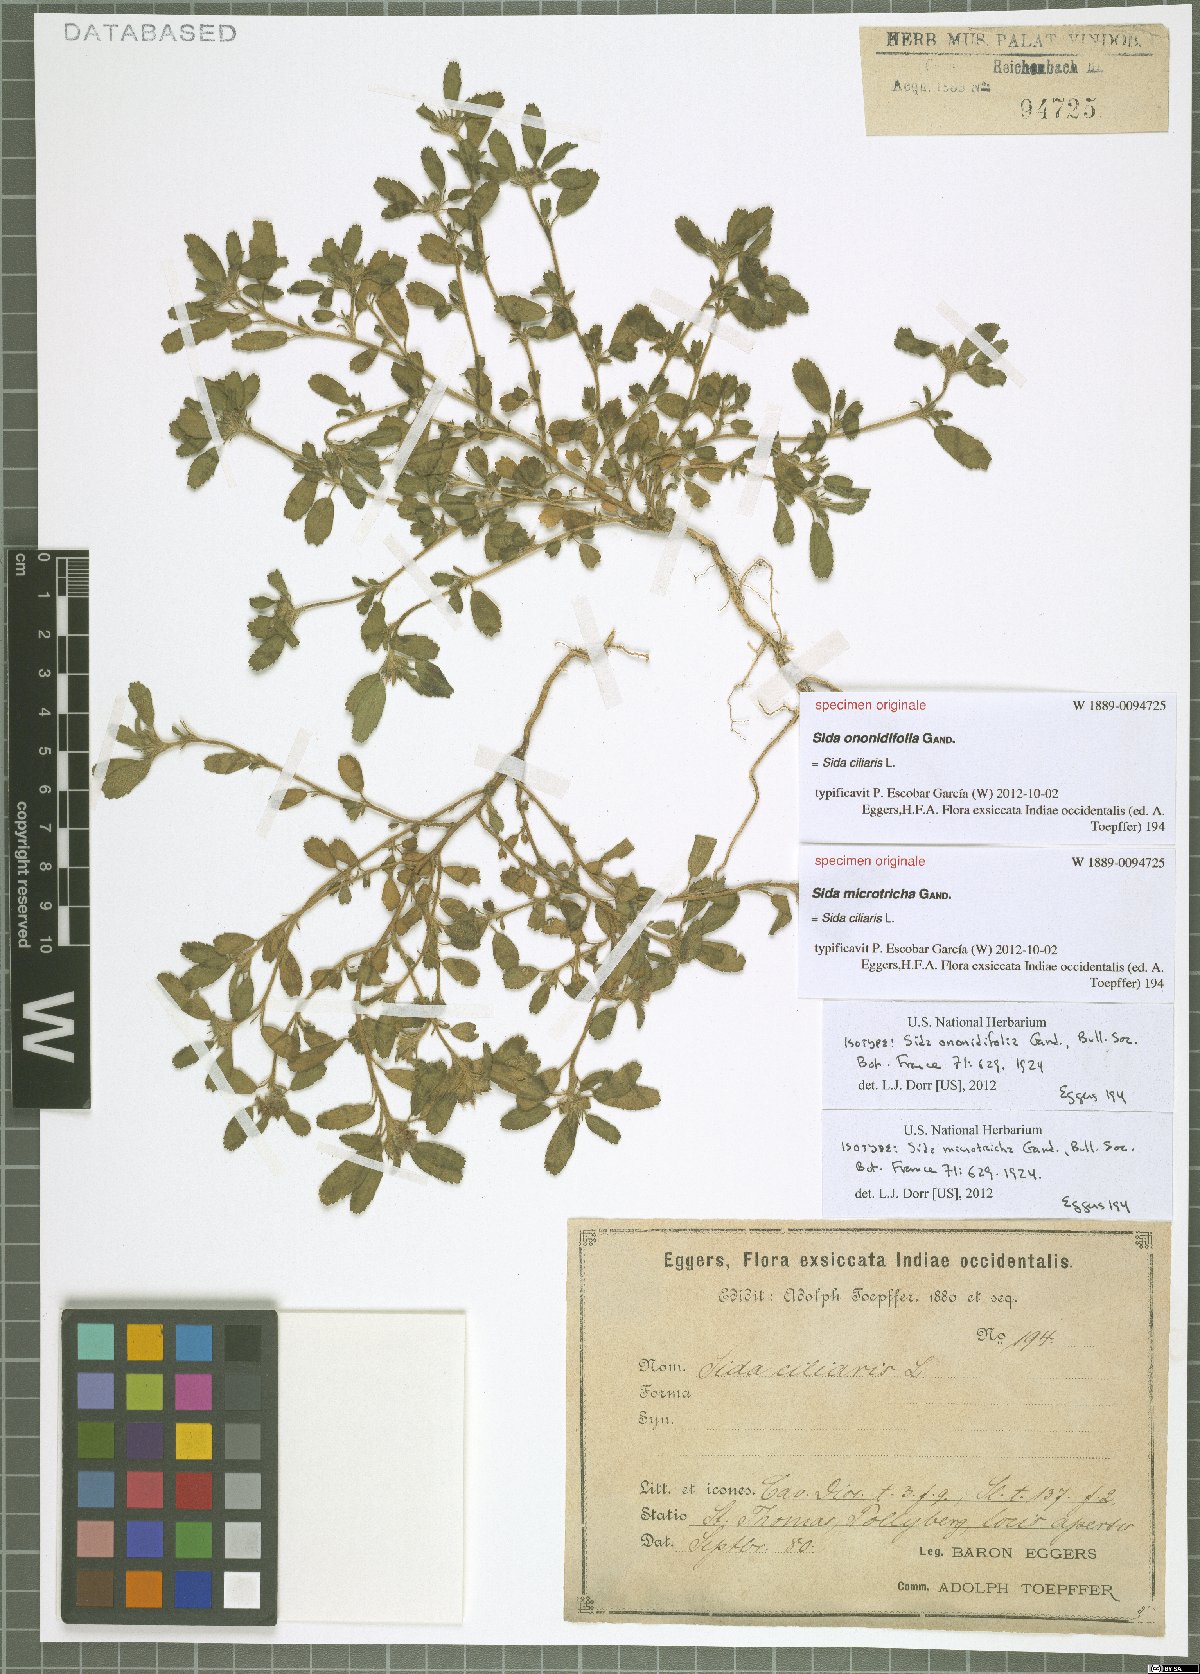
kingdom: Plantae
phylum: Tracheophyta
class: Magnoliopsida
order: Malvales
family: Malvaceae
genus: Sida
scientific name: Sida ciliaris
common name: Bracted fanpetals
